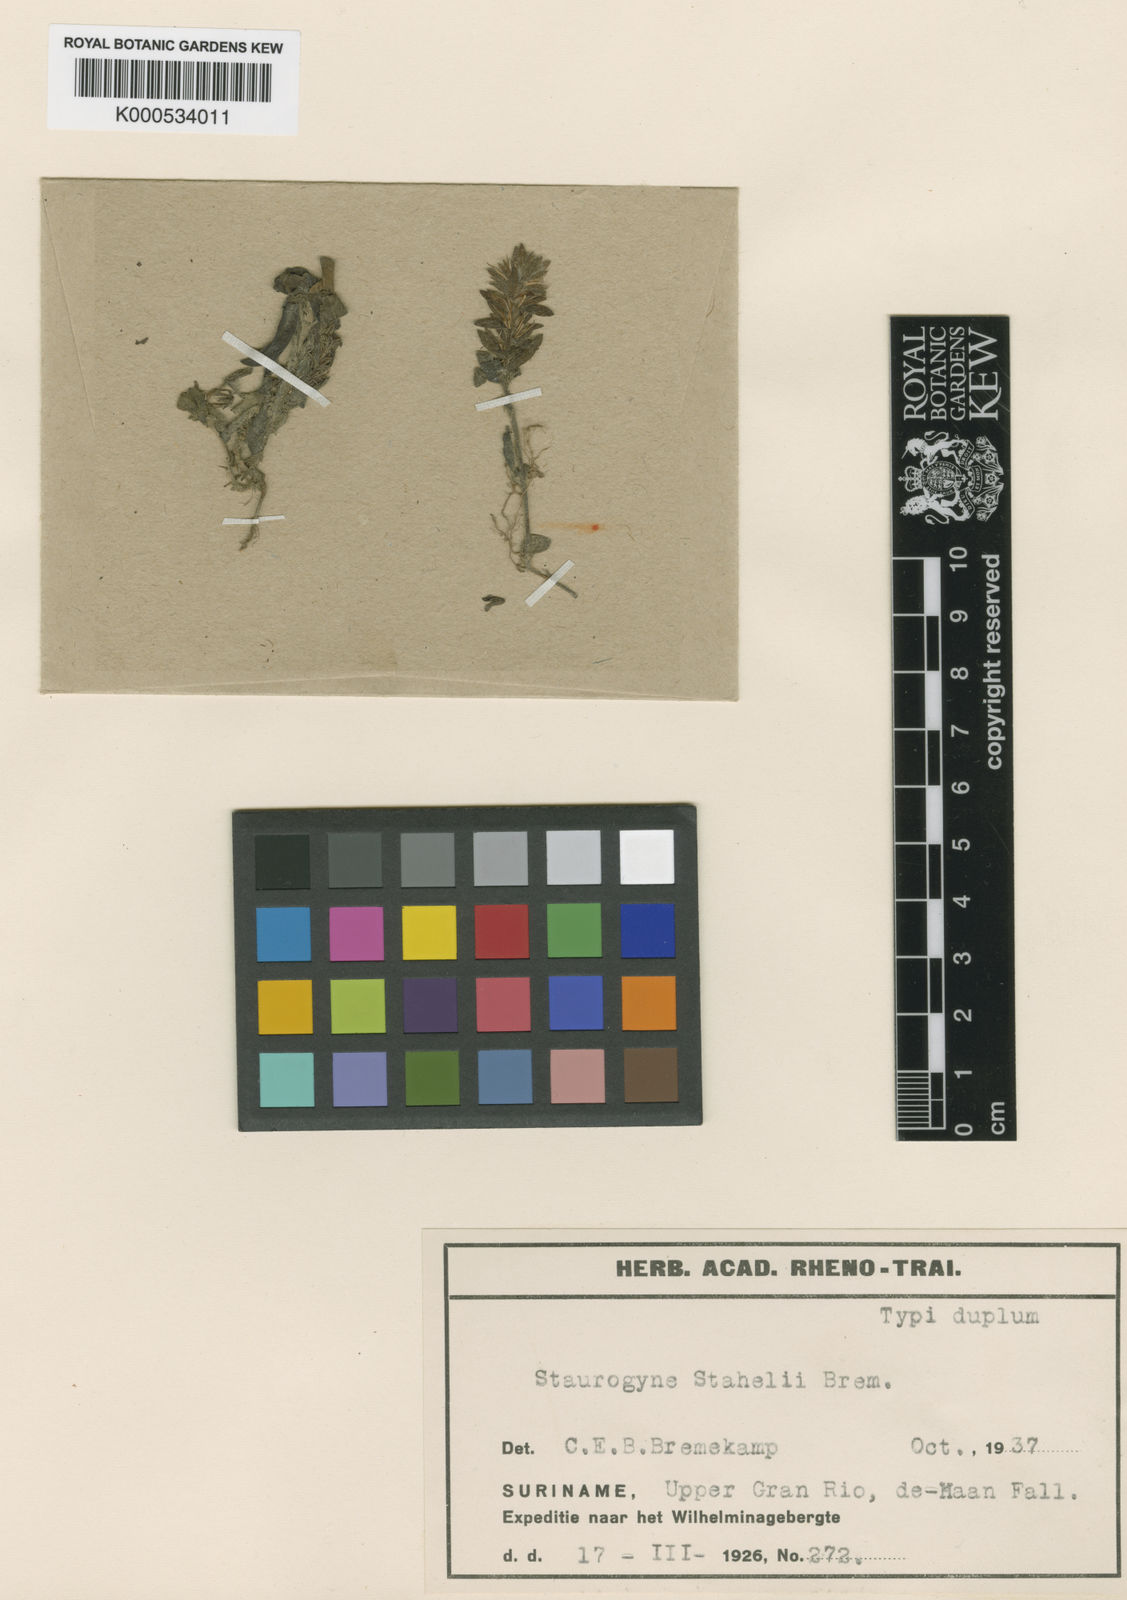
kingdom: Plantae
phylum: Tracheophyta
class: Magnoliopsida
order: Lamiales
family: Acanthaceae
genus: Staurogyne
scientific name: Staurogyne miqueliana
